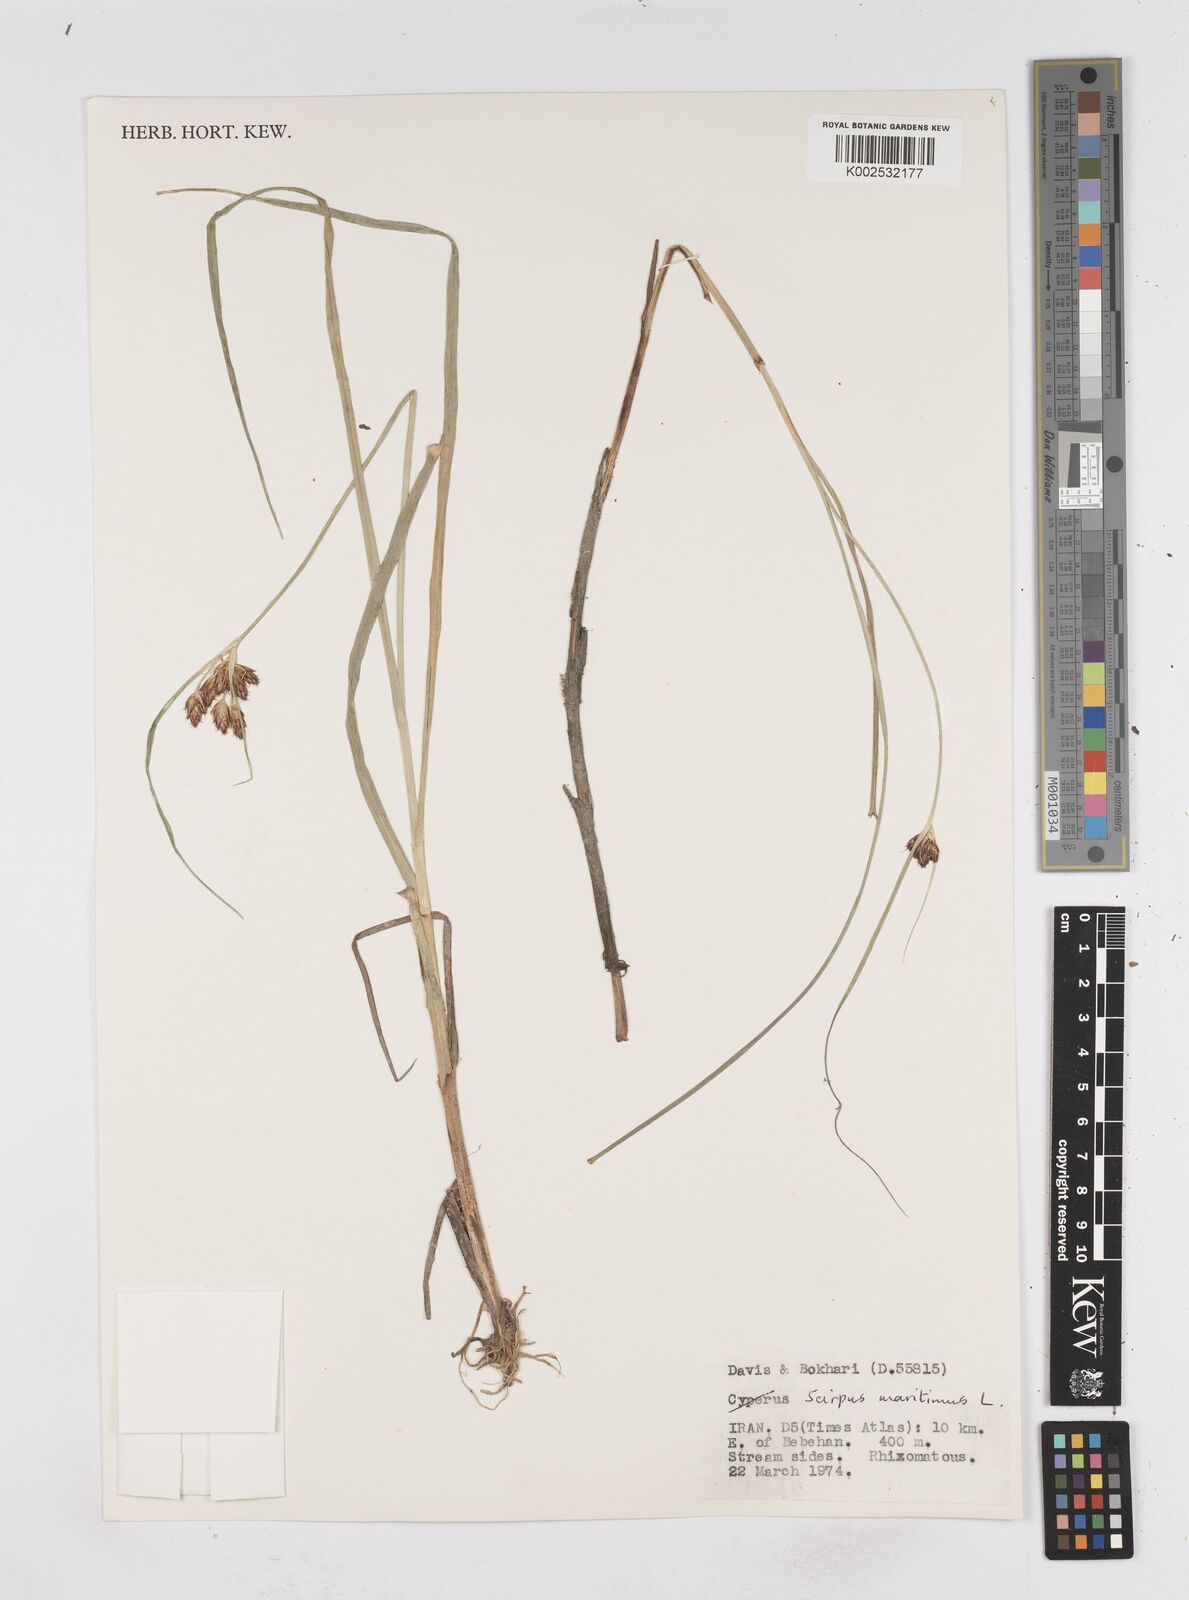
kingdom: Plantae
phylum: Tracheophyta
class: Liliopsida
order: Poales
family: Cyperaceae
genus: Bolboschoenus
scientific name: Bolboschoenus maritimus
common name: Sea club-rush
